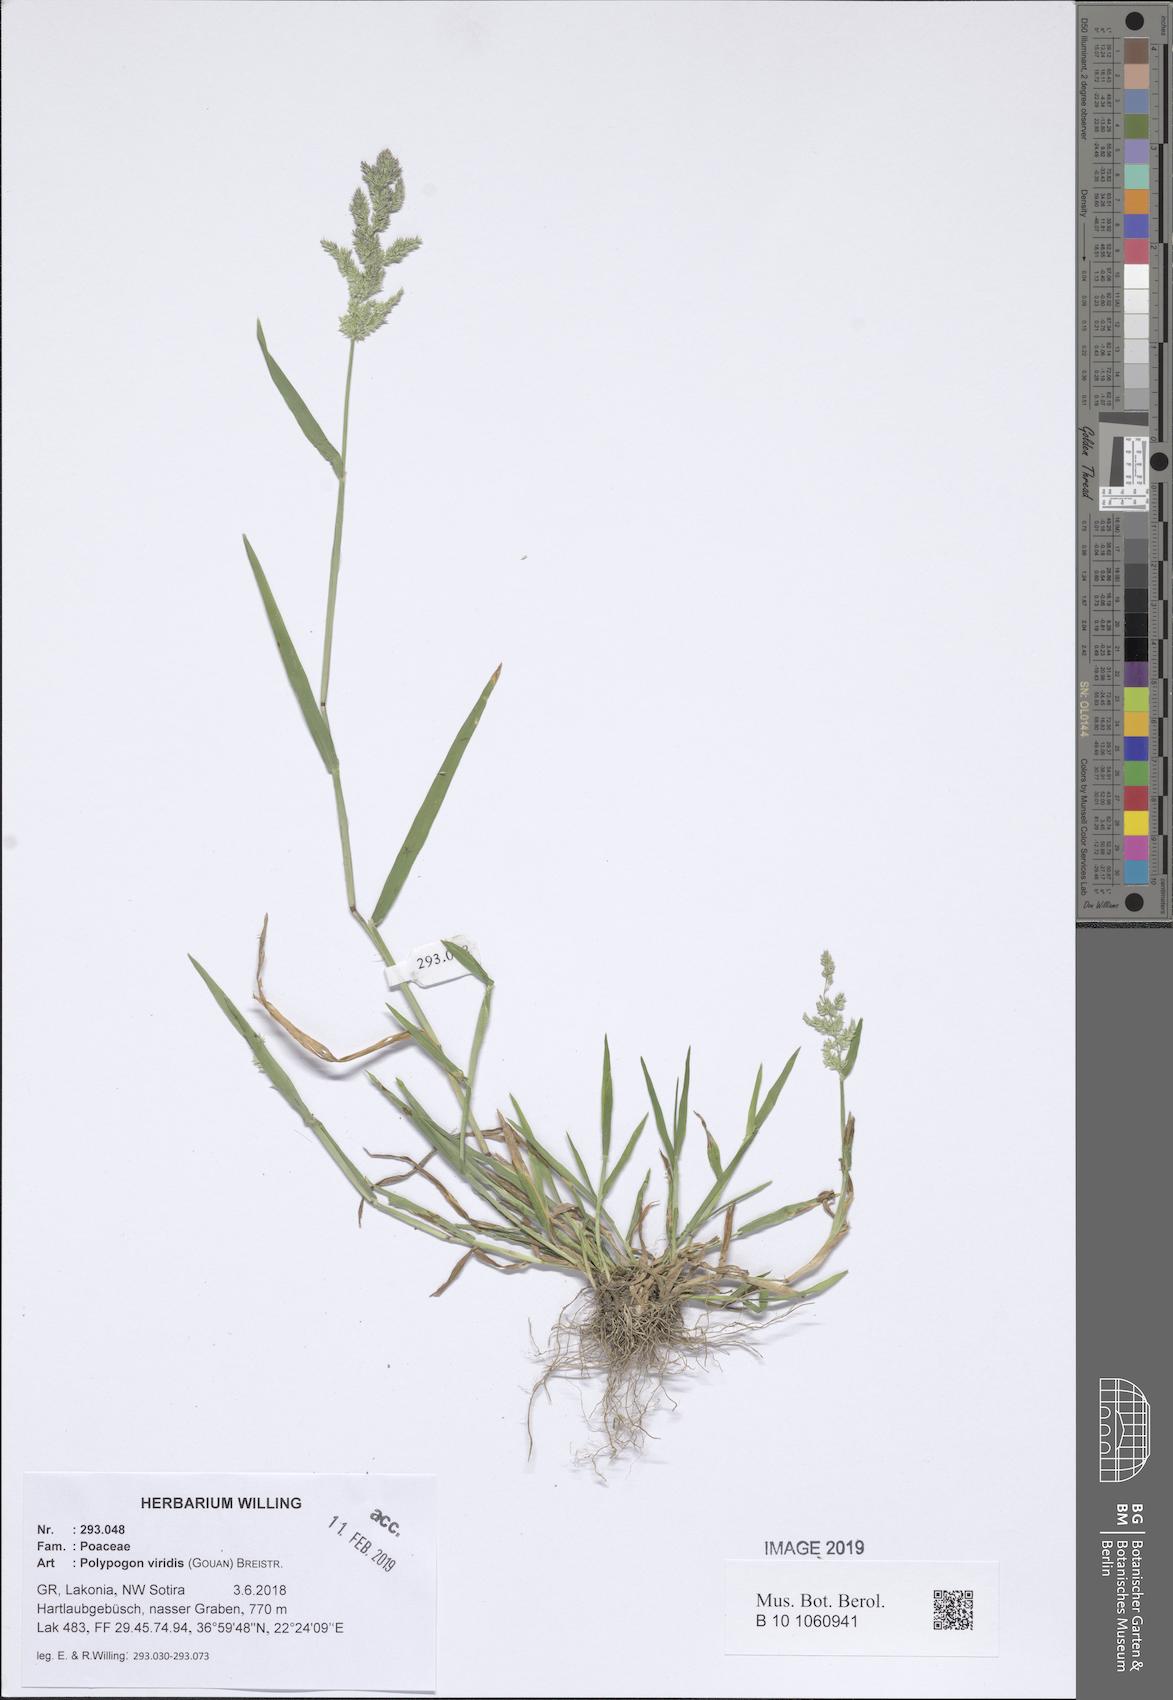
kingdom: Plantae
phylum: Tracheophyta
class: Liliopsida
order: Poales
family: Poaceae
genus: Polypogon
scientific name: Polypogon viridis
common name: Water bent
